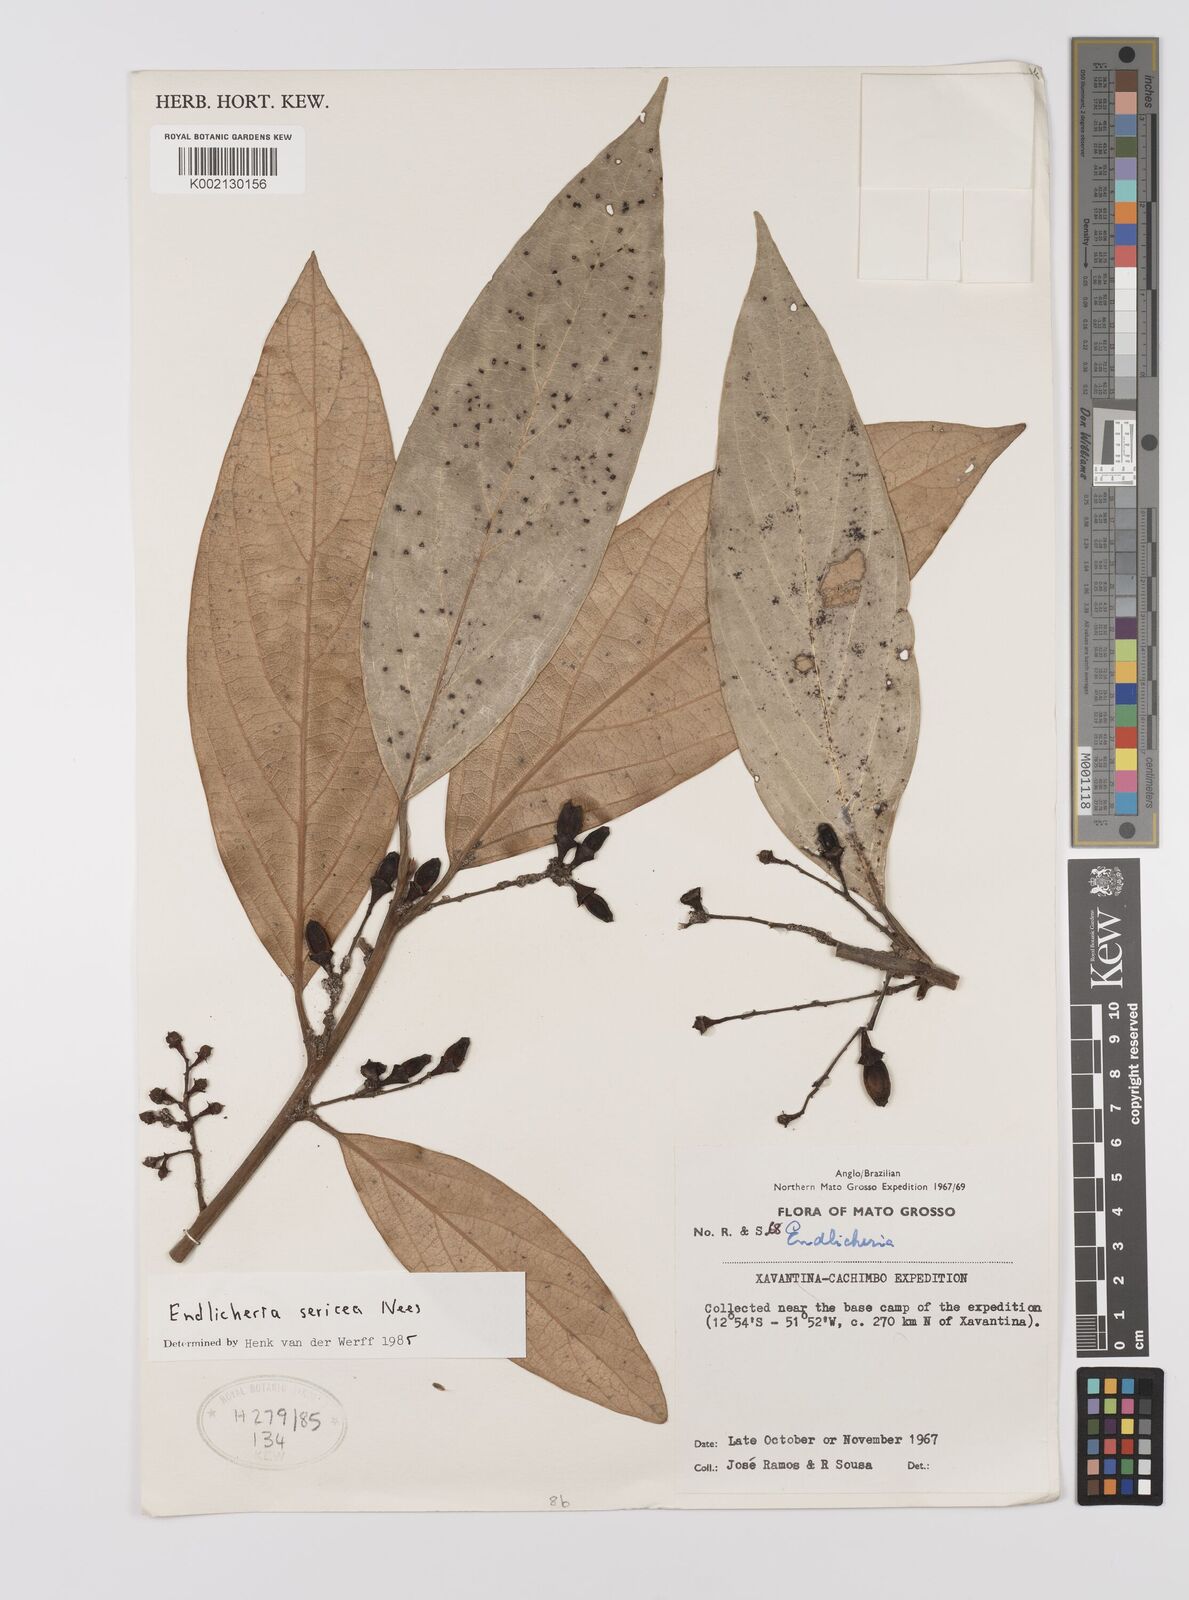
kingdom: Plantae
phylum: Tracheophyta
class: Magnoliopsida
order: Laurales
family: Lauraceae
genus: Endlicheria
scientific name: Endlicheria sericea
